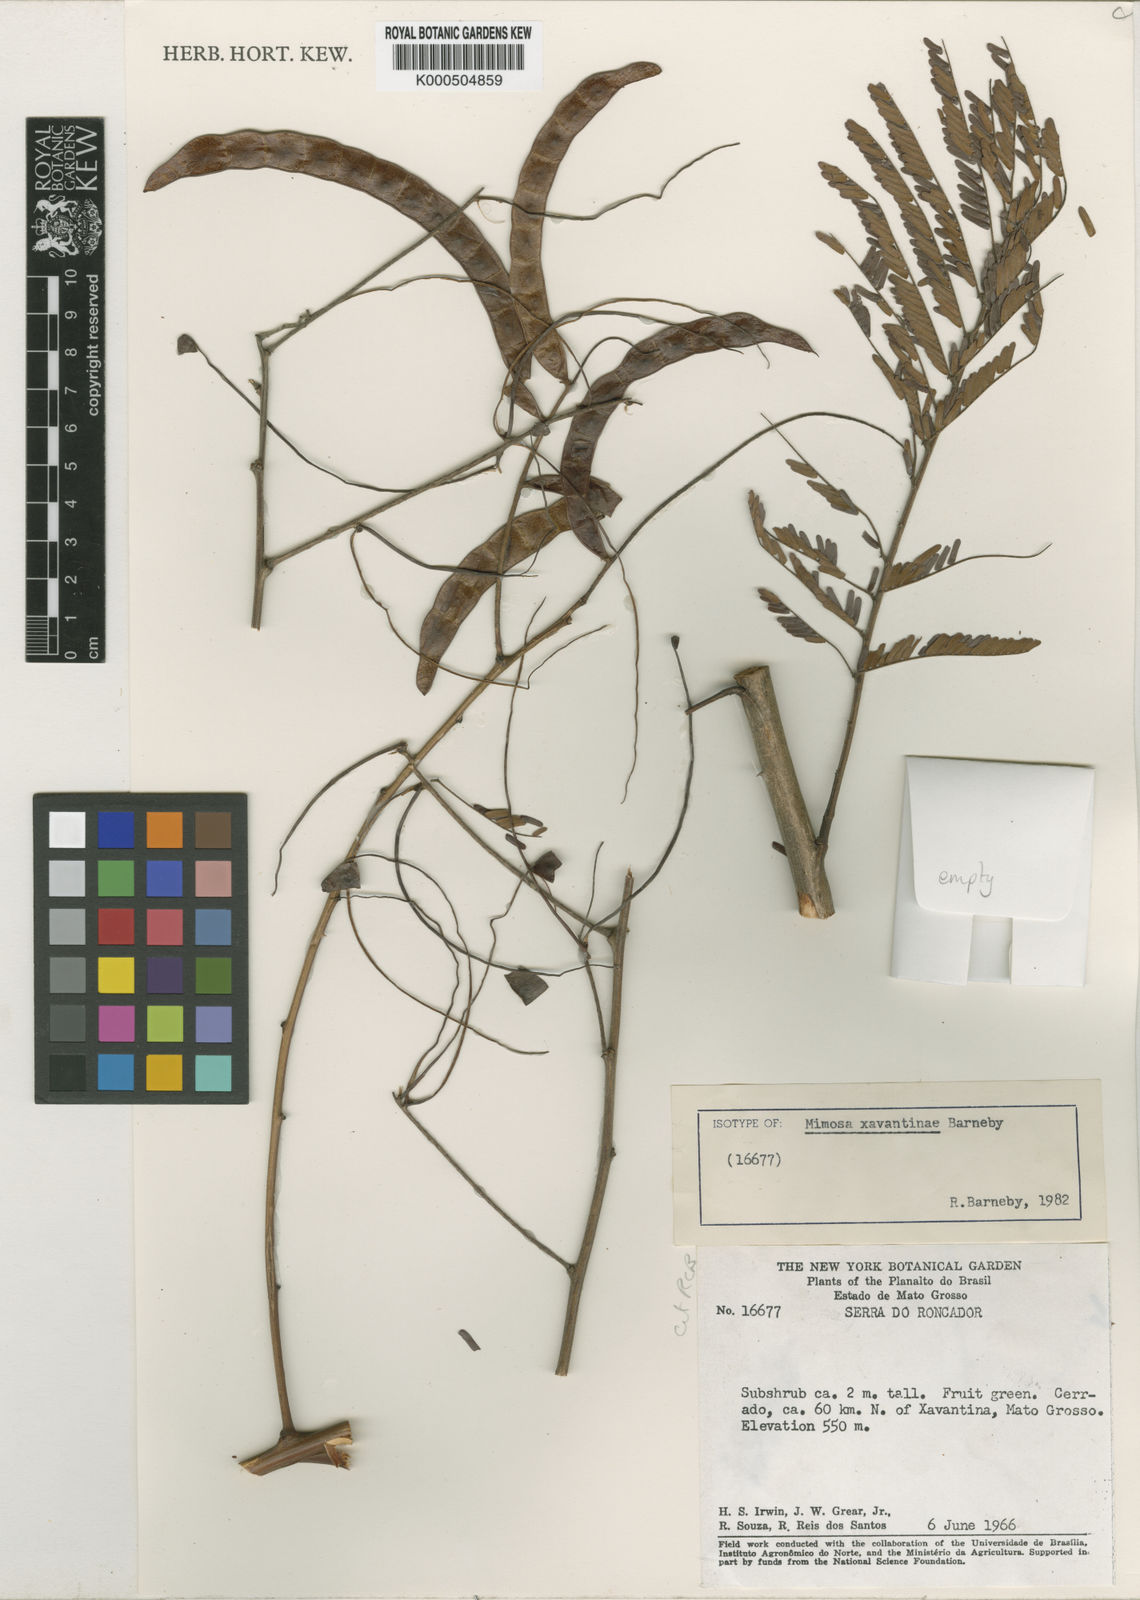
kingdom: Plantae
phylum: Tracheophyta
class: Magnoliopsida
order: Fabales
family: Fabaceae
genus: Mimosa
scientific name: Mimosa apodocarpa
